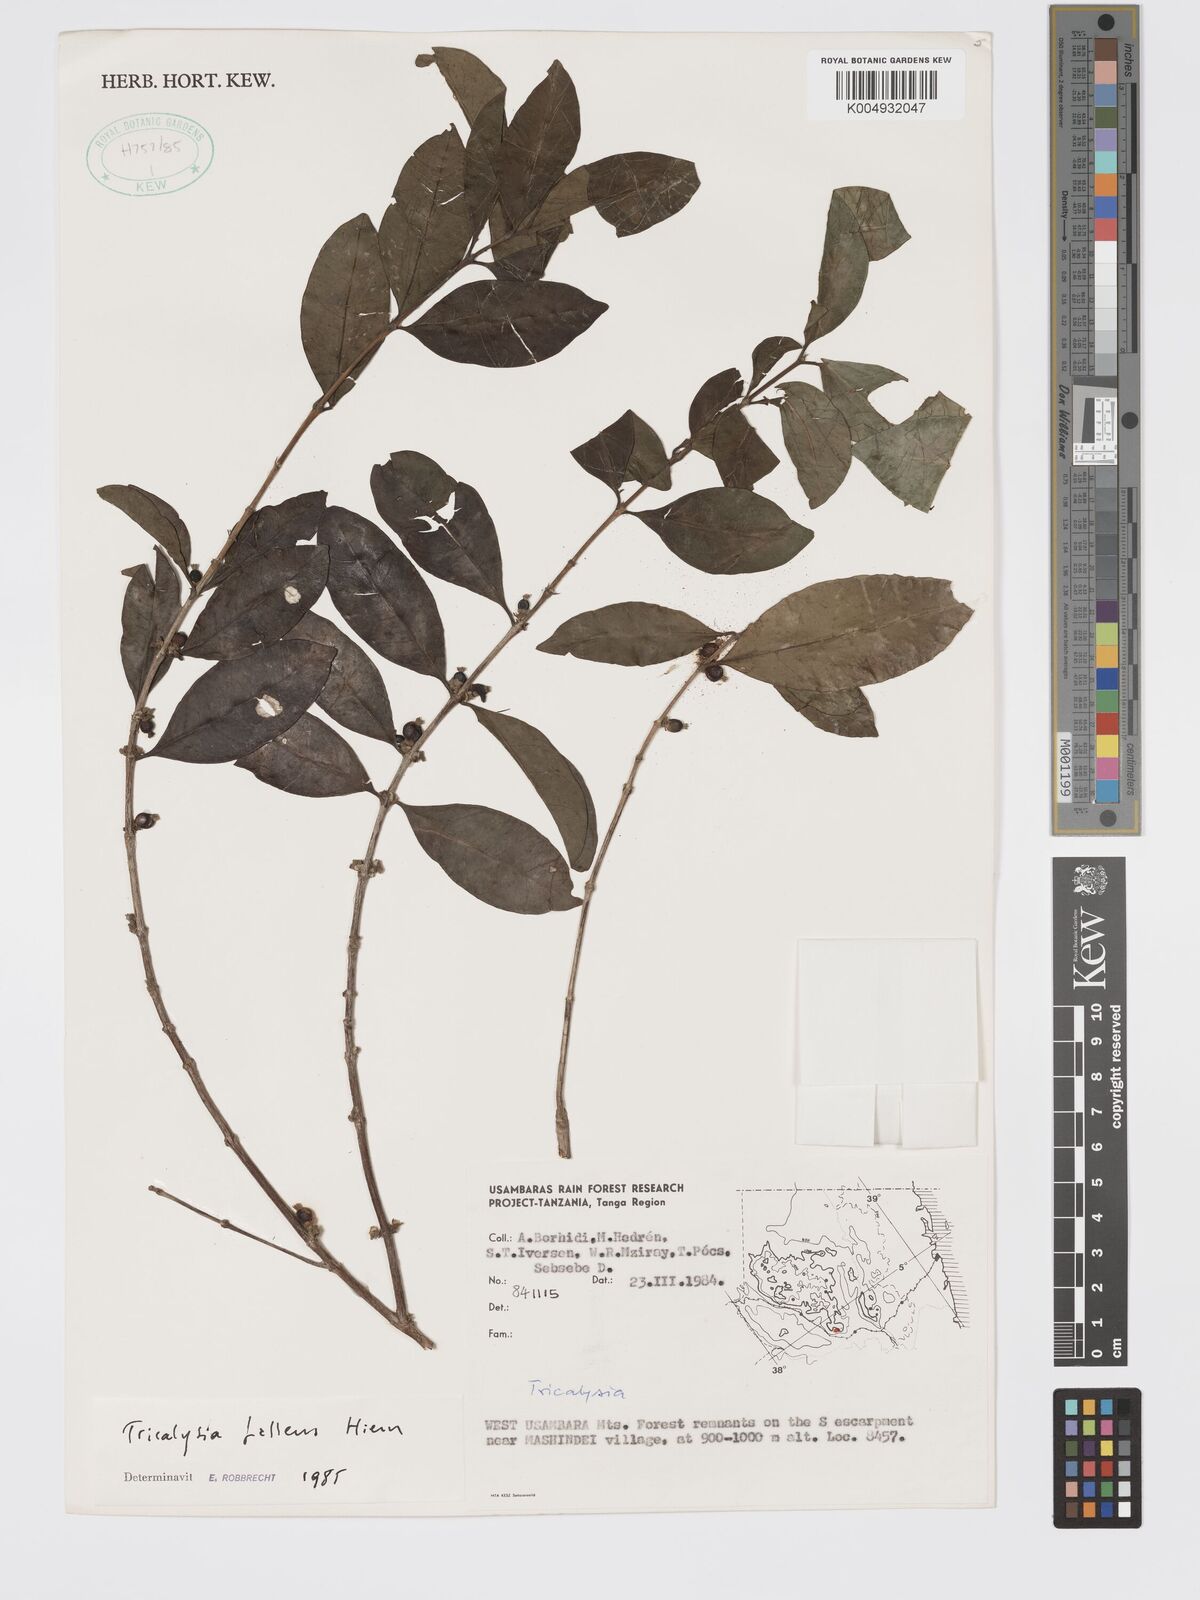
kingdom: Plantae
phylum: Tracheophyta
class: Magnoliopsida
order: Gentianales
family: Rubiaceae
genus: Tricalysia
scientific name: Tricalysia pallens
